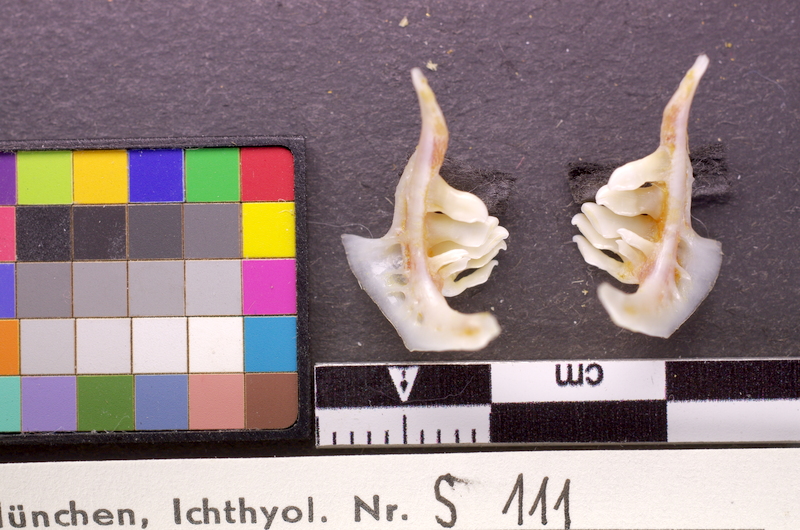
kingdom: Animalia
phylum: Chordata
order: Cypriniformes
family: Cyprinidae
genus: Blicca
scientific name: Blicca bjoerkna
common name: White bream
